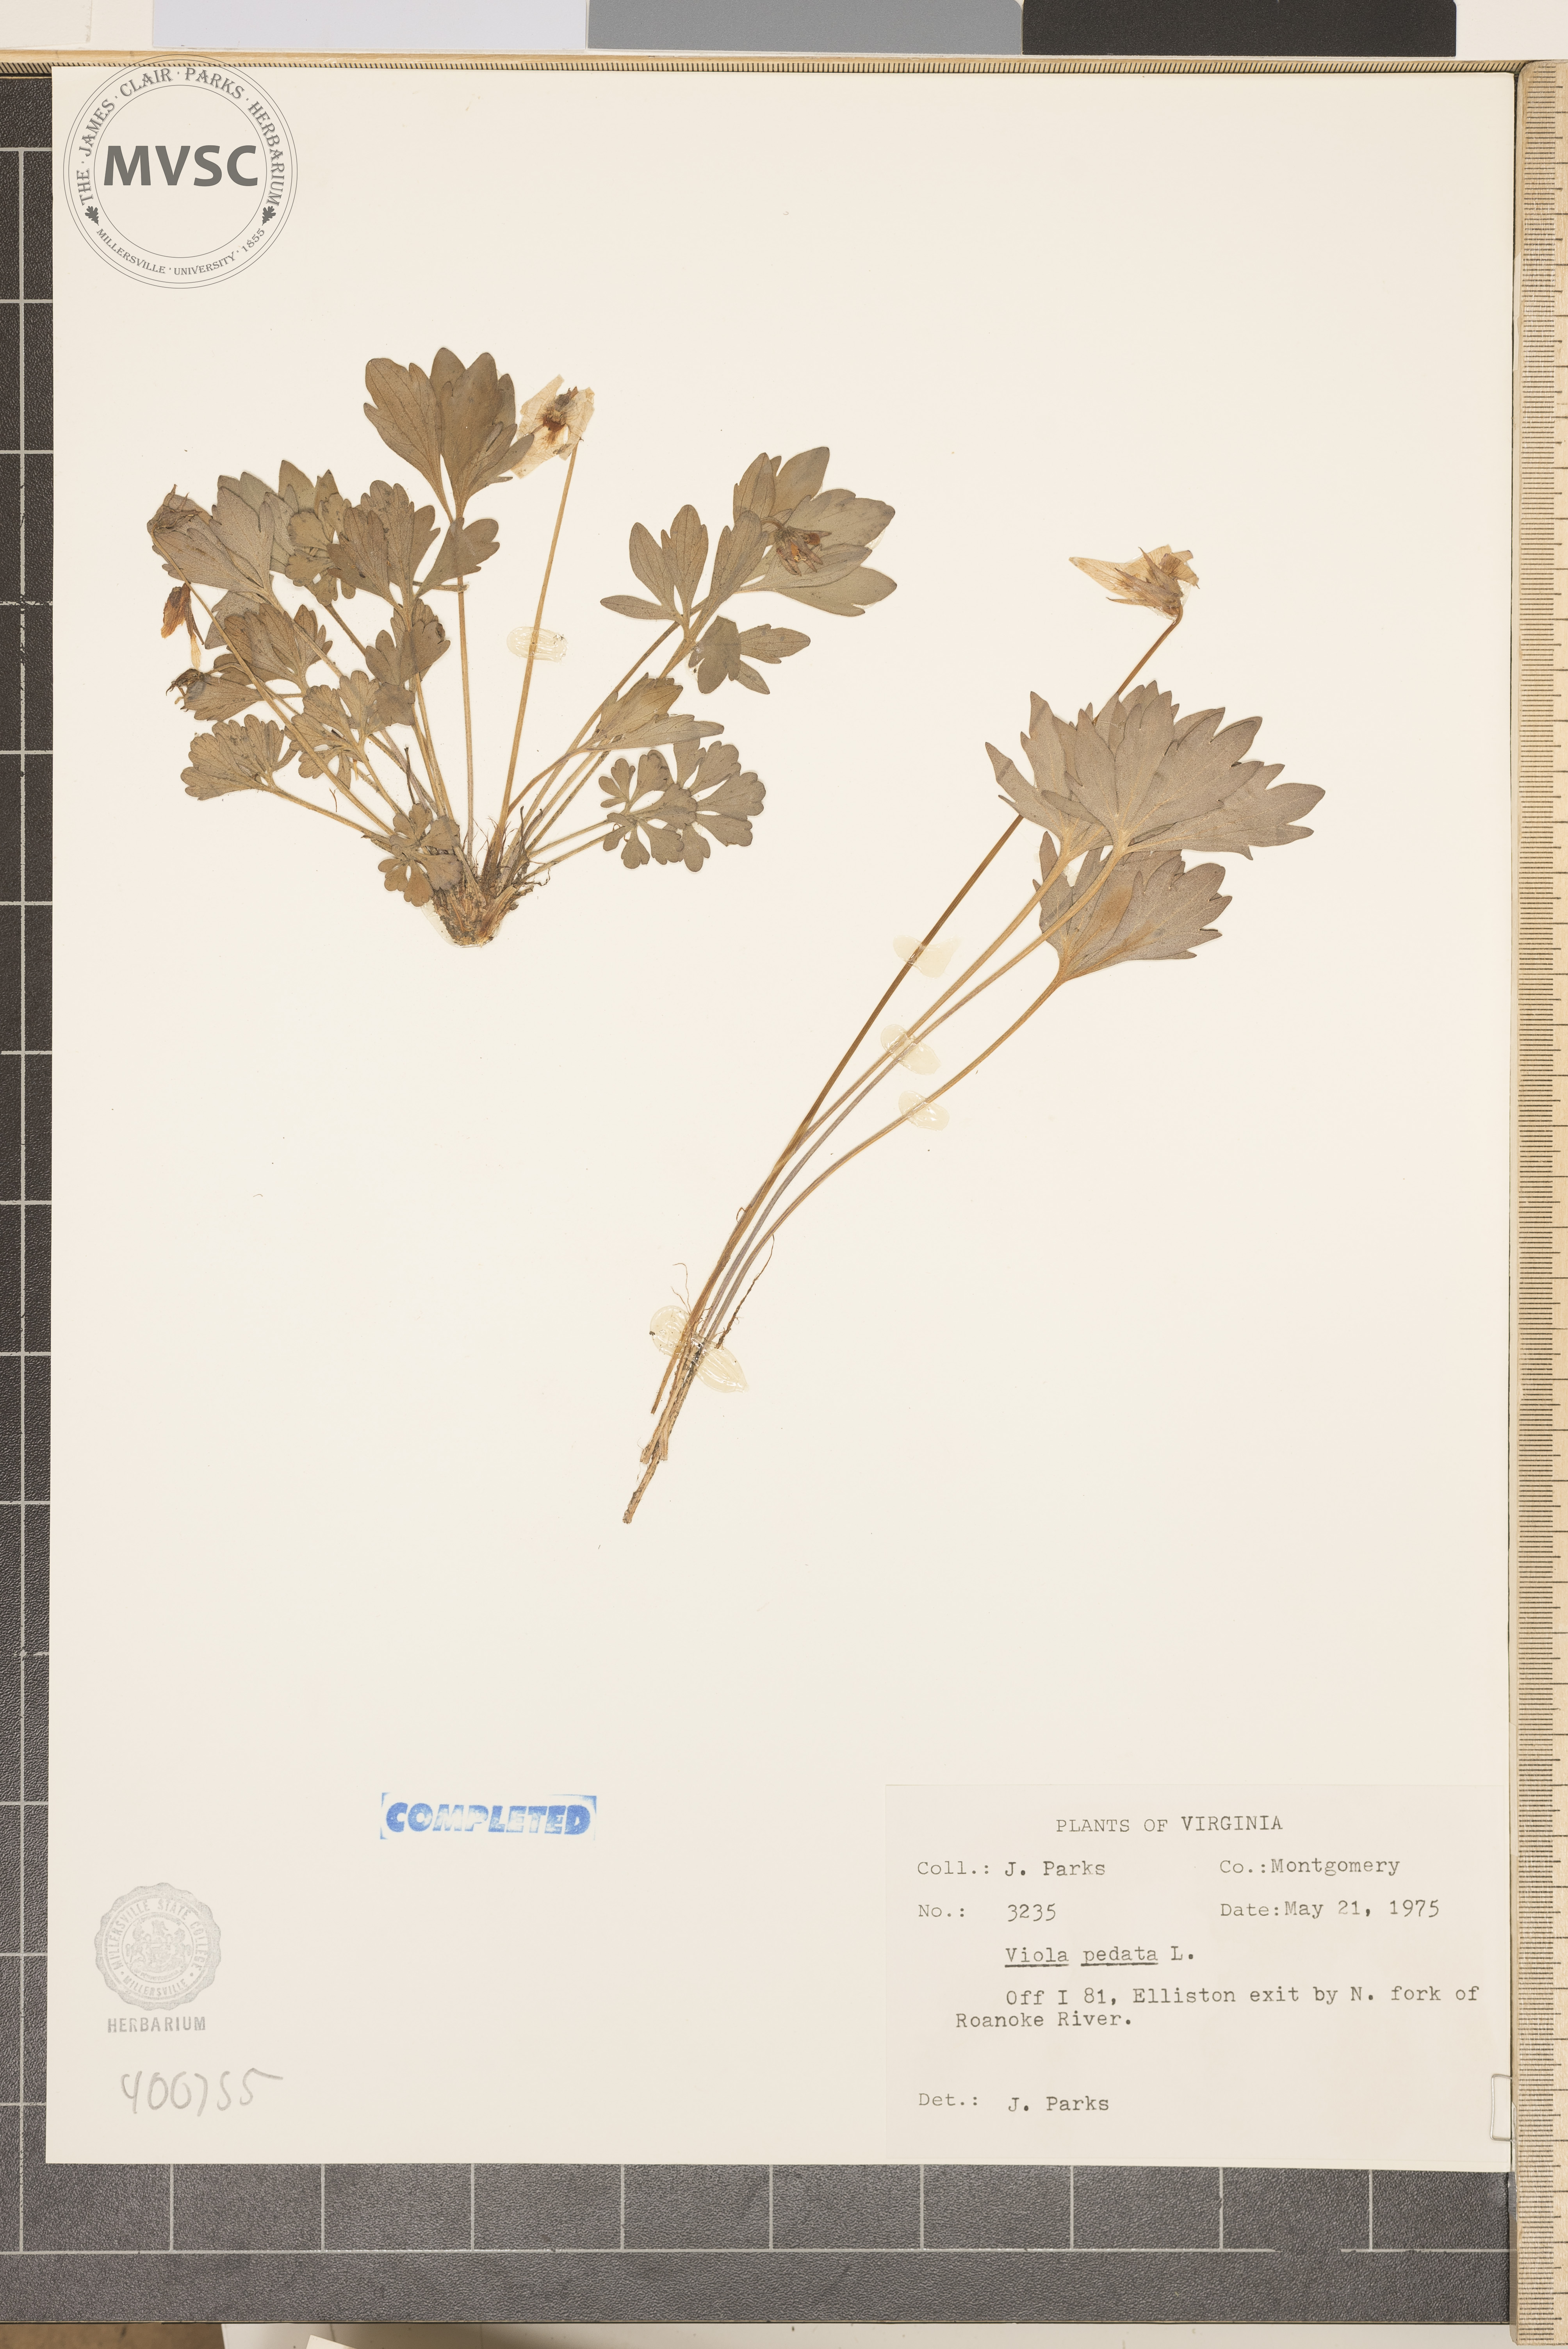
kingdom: Plantae
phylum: Tracheophyta
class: Magnoliopsida
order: Malpighiales
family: Violaceae
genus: Viola
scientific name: Viola pedata
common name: violet
